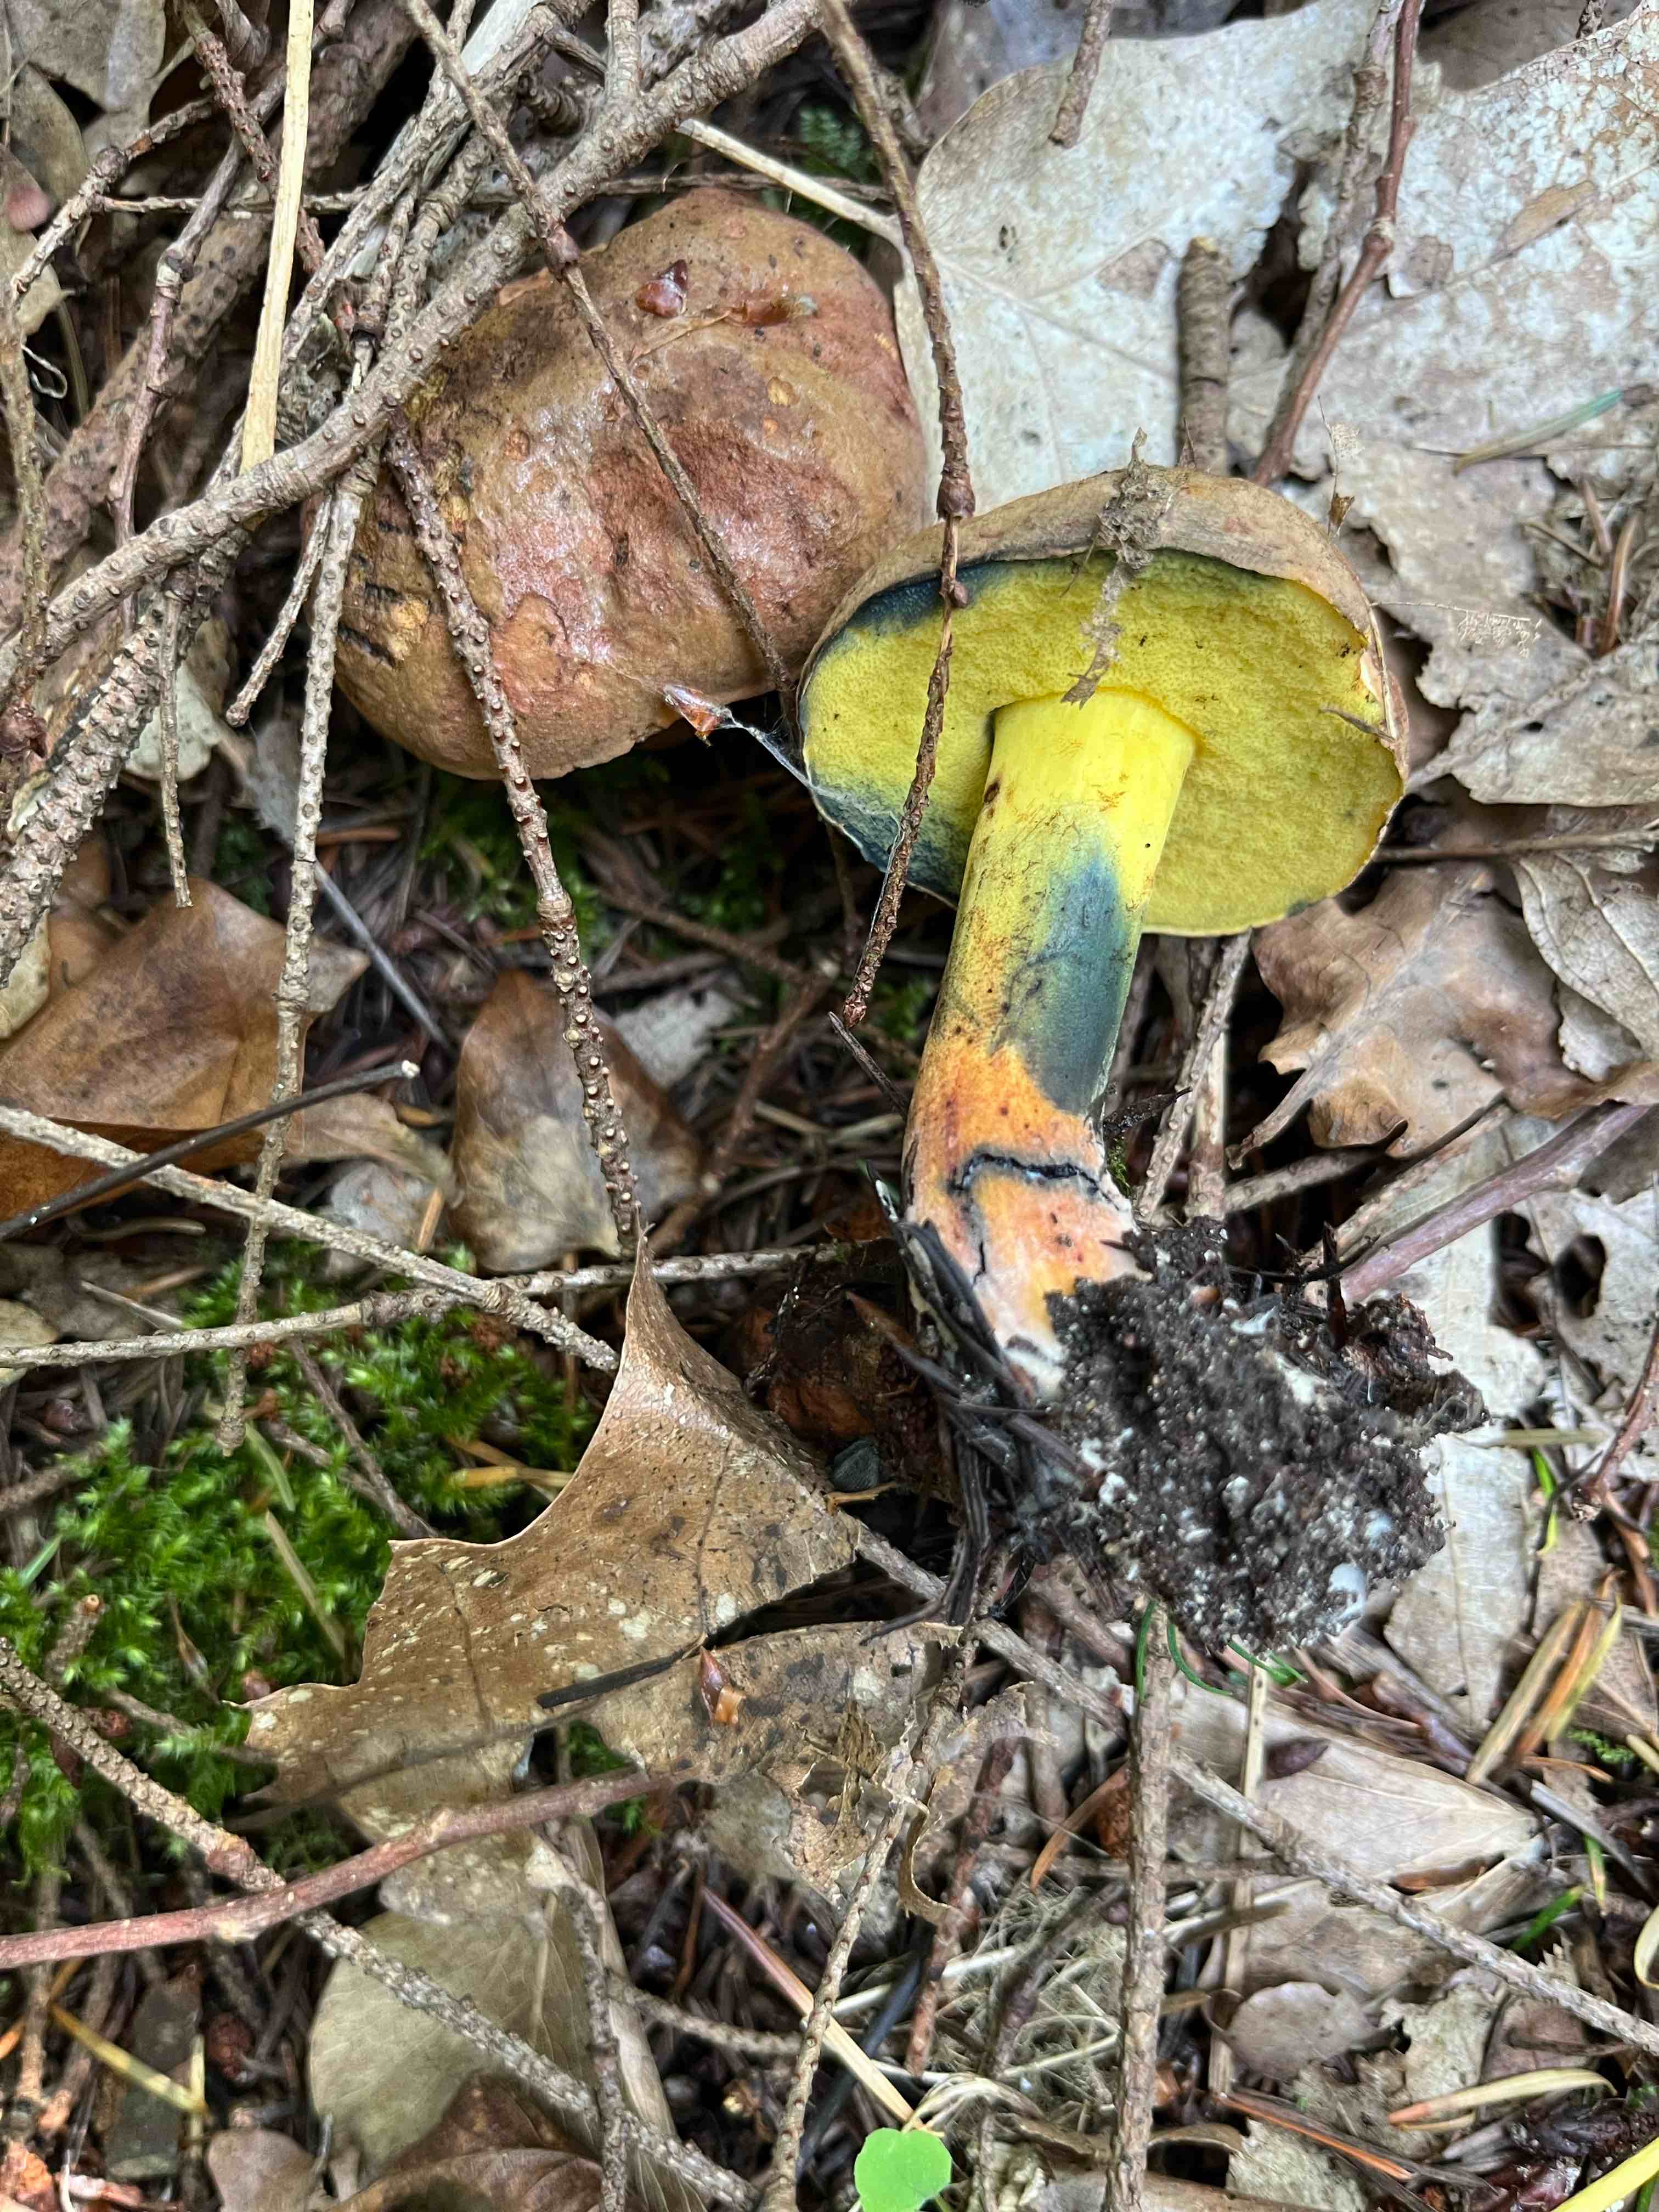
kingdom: Fungi
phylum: Basidiomycota
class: Agaricomycetes
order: Boletales
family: Boletaceae
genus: Cyanoboletus
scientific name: Cyanoboletus pulverulentus
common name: sortblånende rørhat
